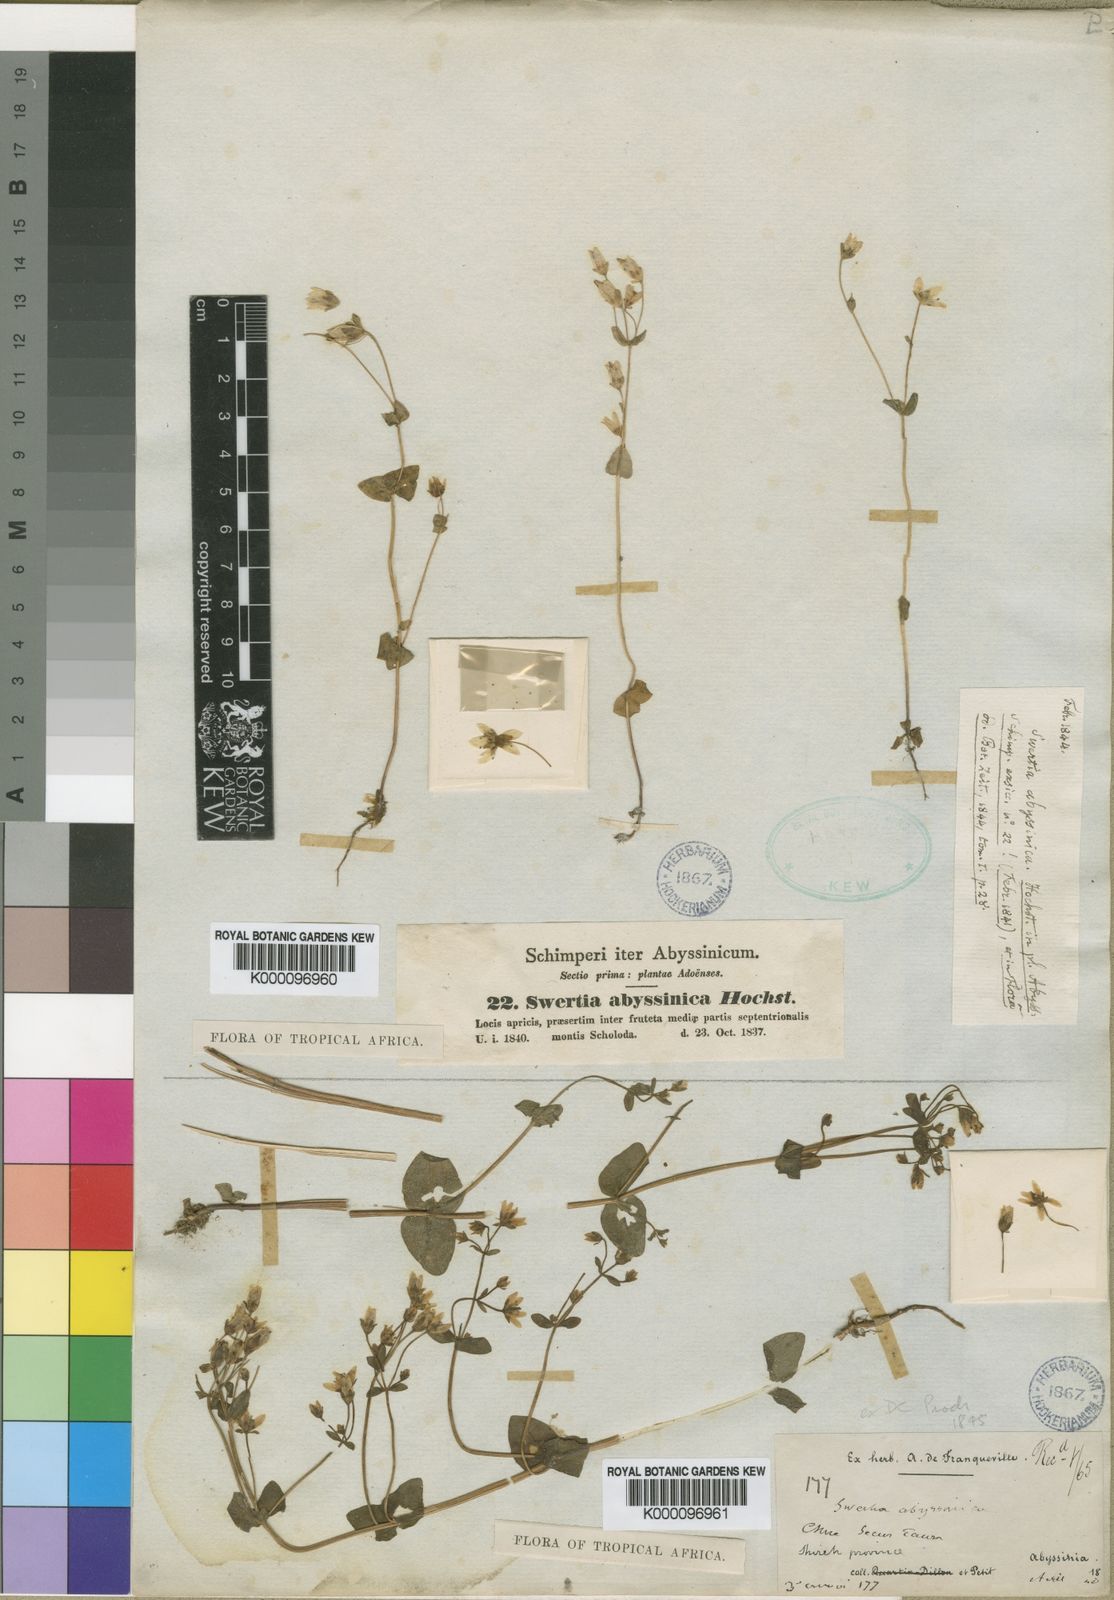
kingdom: Plantae
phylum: Tracheophyta
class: Magnoliopsida
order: Gentianales
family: Gentianaceae
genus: Swertia
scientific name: Swertia abyssinica
